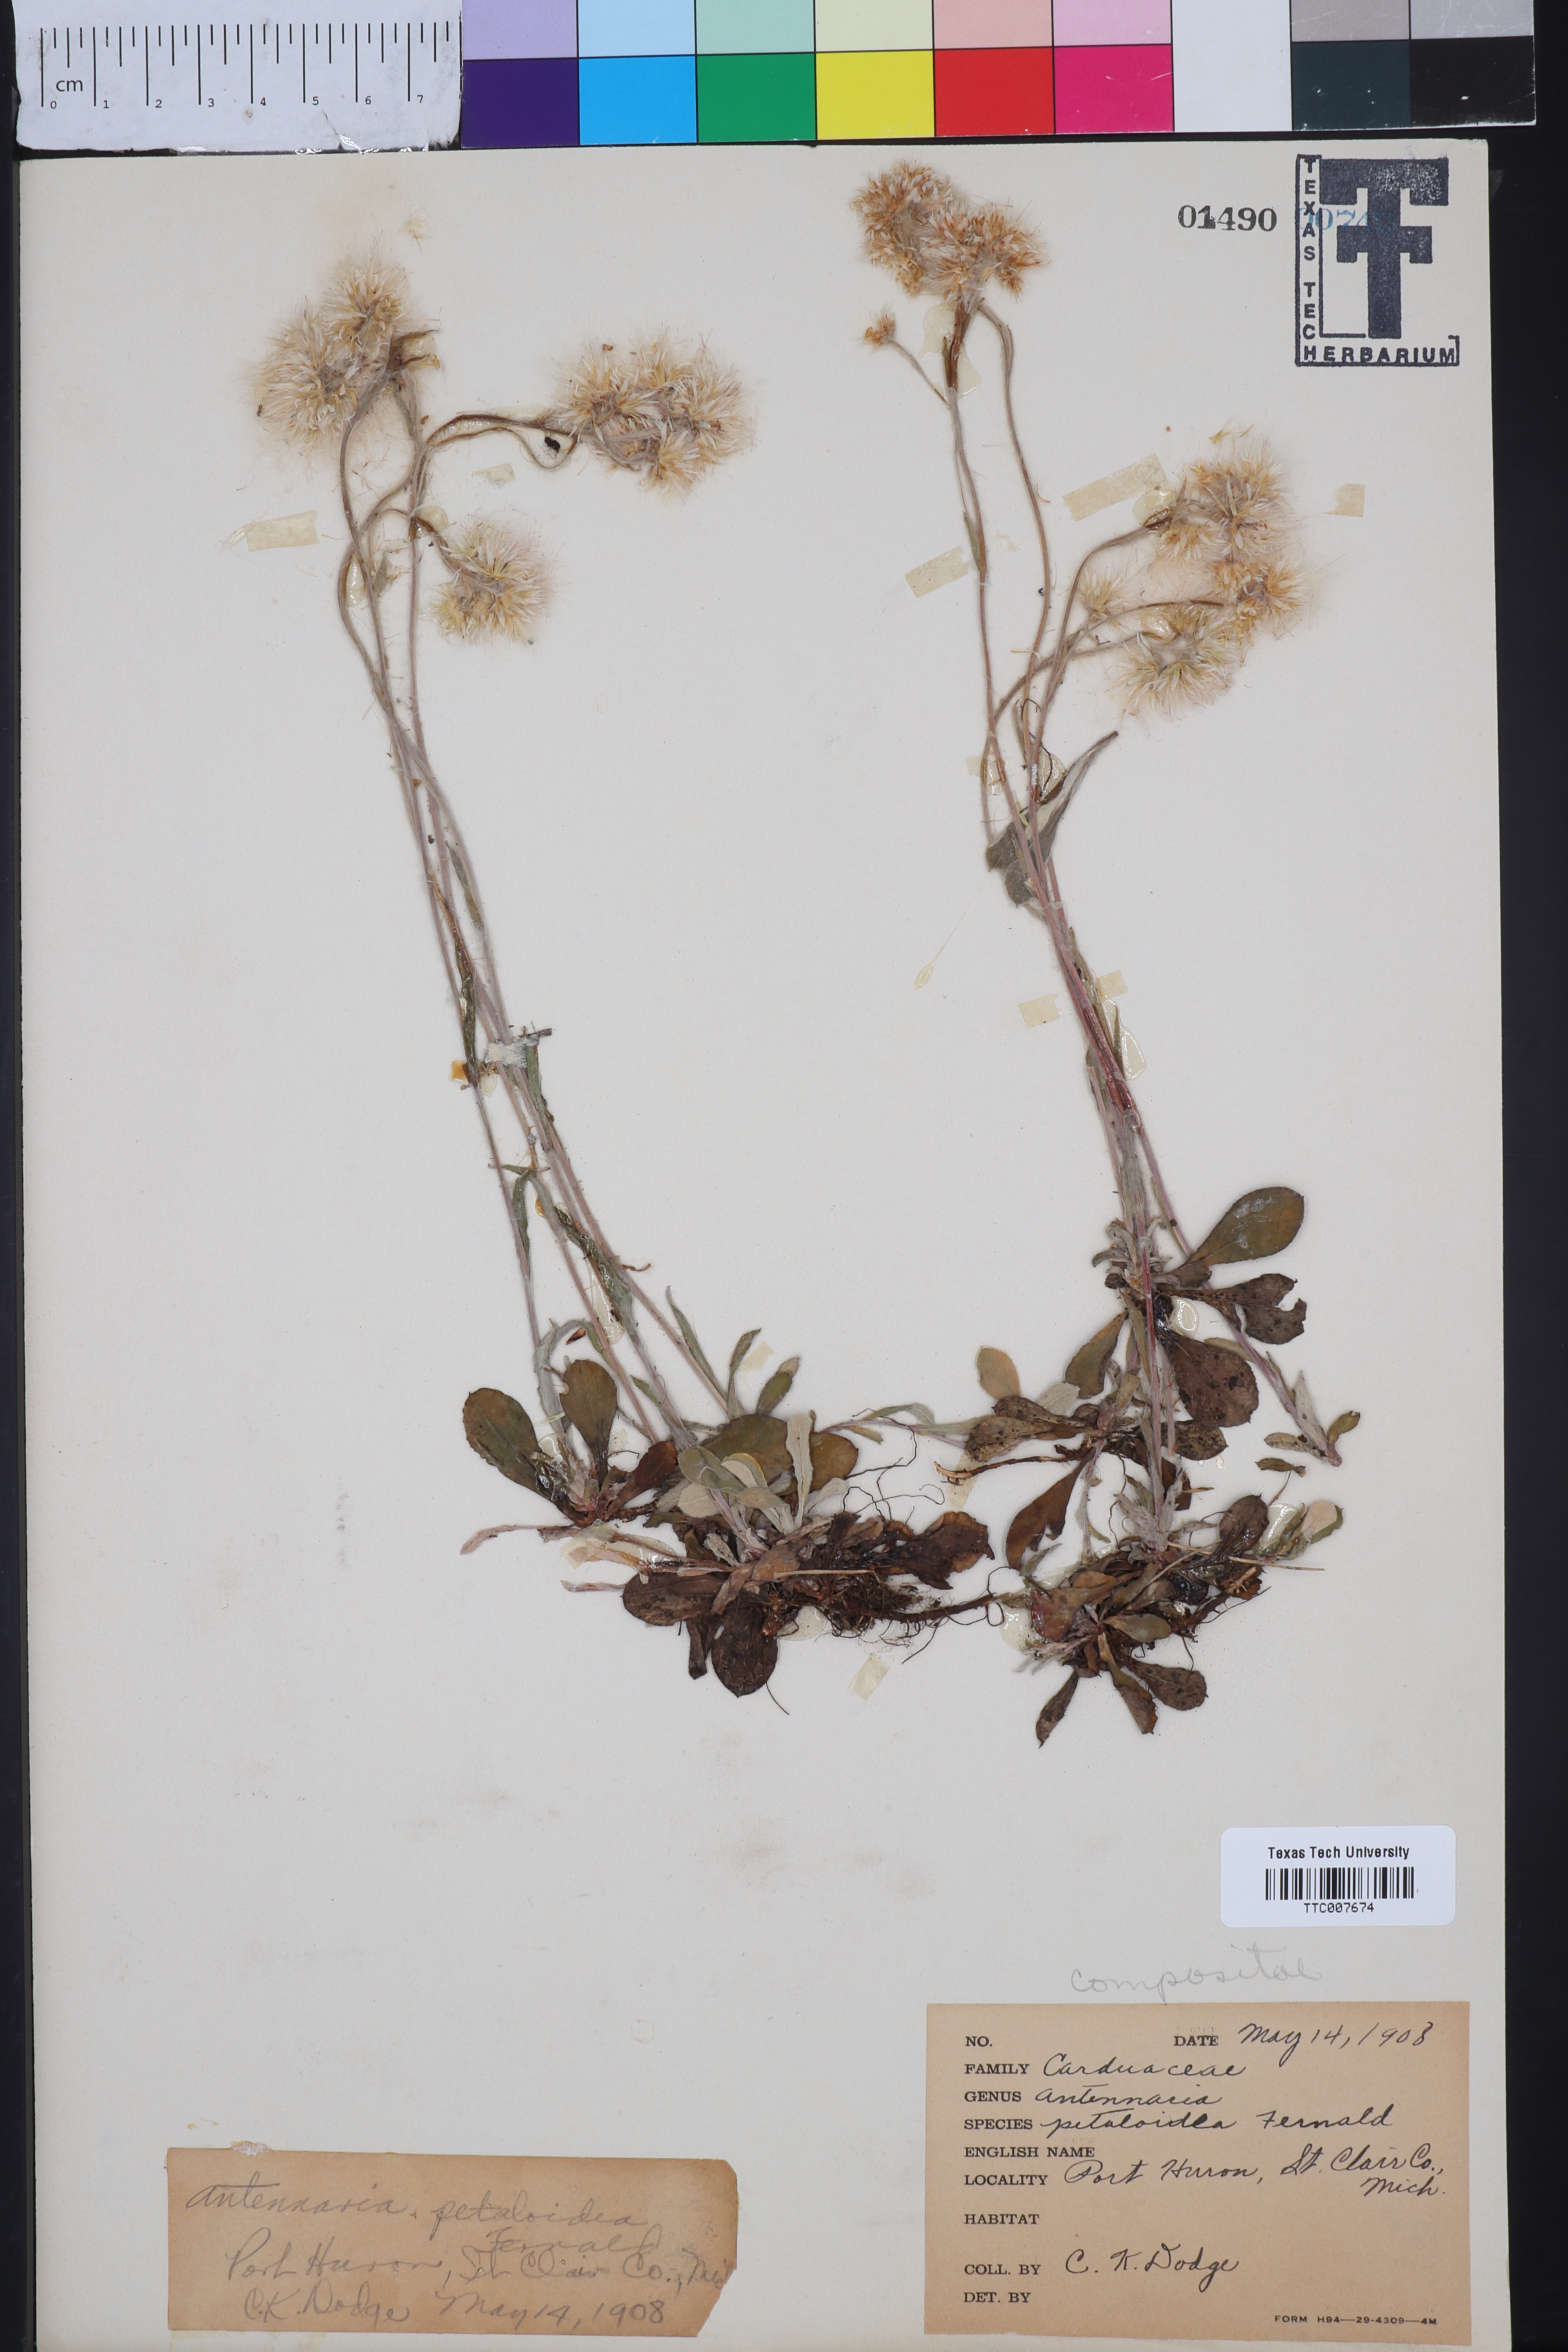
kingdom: Plantae
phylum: Tracheophyta
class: Magnoliopsida
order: Asterales
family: Asteraceae
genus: Antennaria
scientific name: Antennaria howellii
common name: Howell's pussytoes
